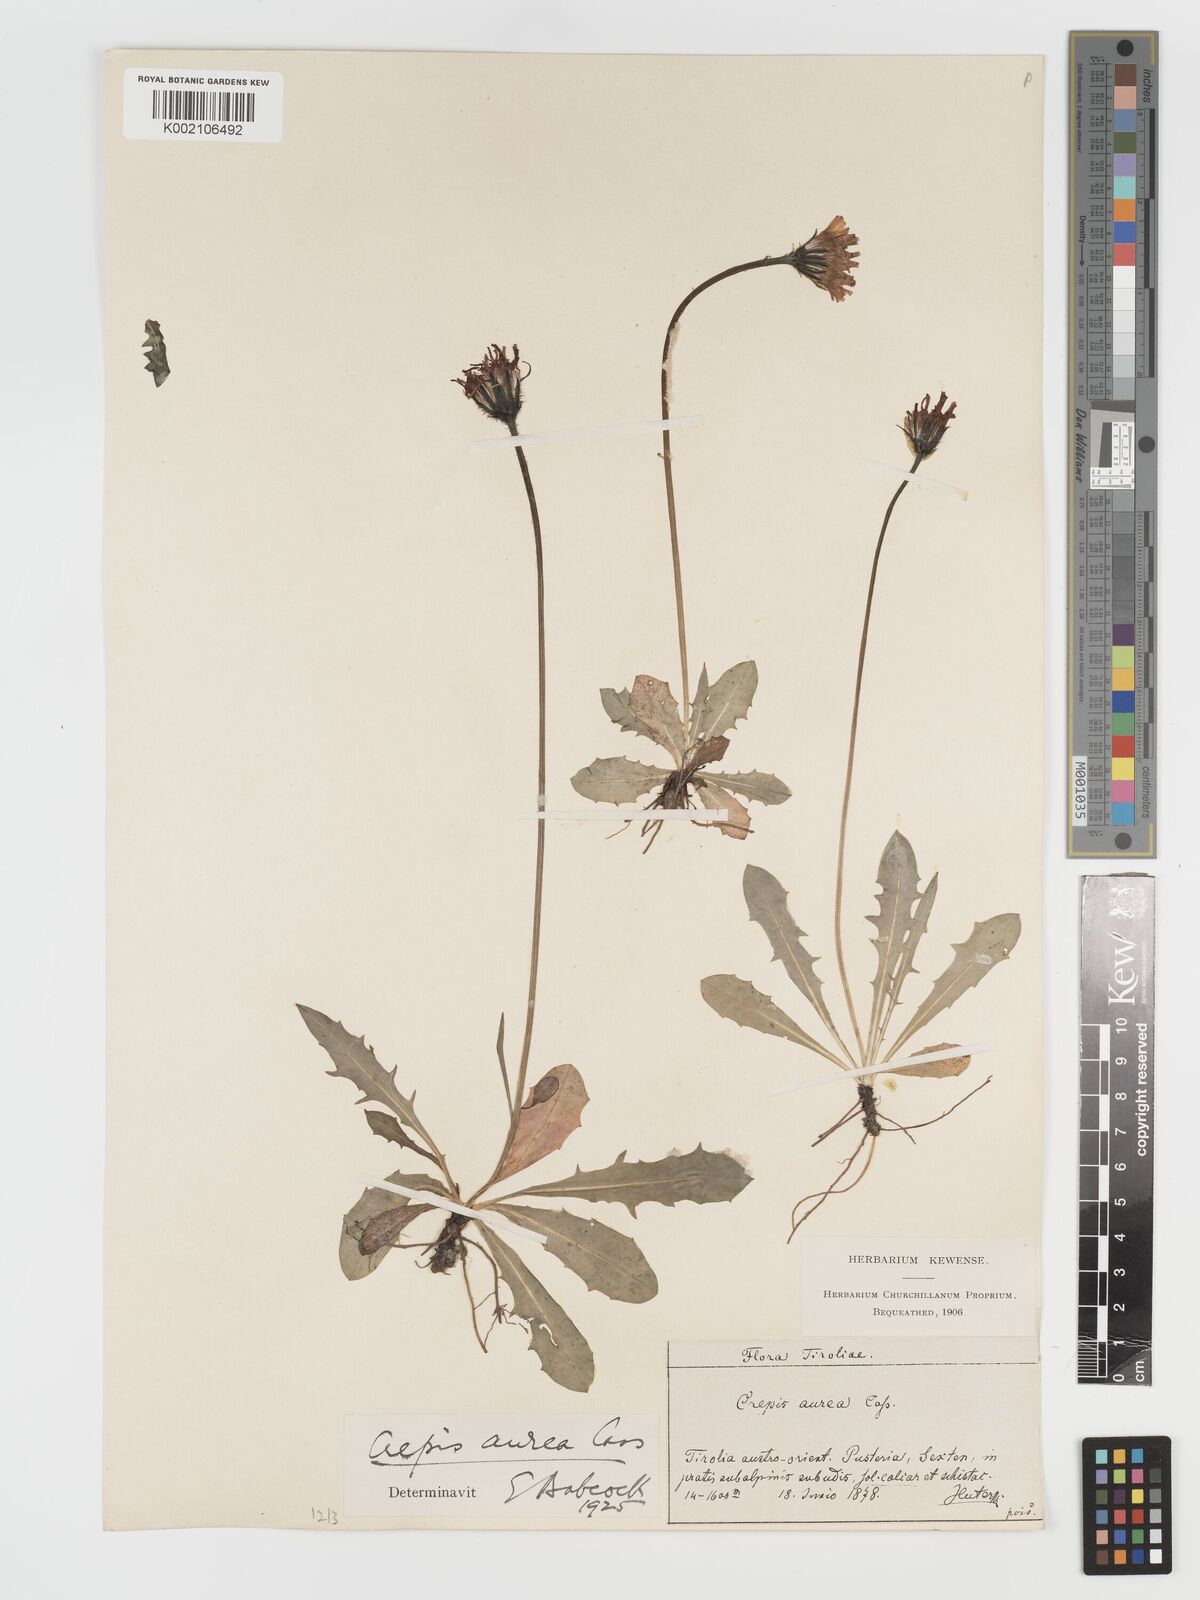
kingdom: Plantae
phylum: Tracheophyta
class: Magnoliopsida
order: Asterales
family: Asteraceae
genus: Crepis
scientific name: Crepis aurea
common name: Golden hawk's-beard
